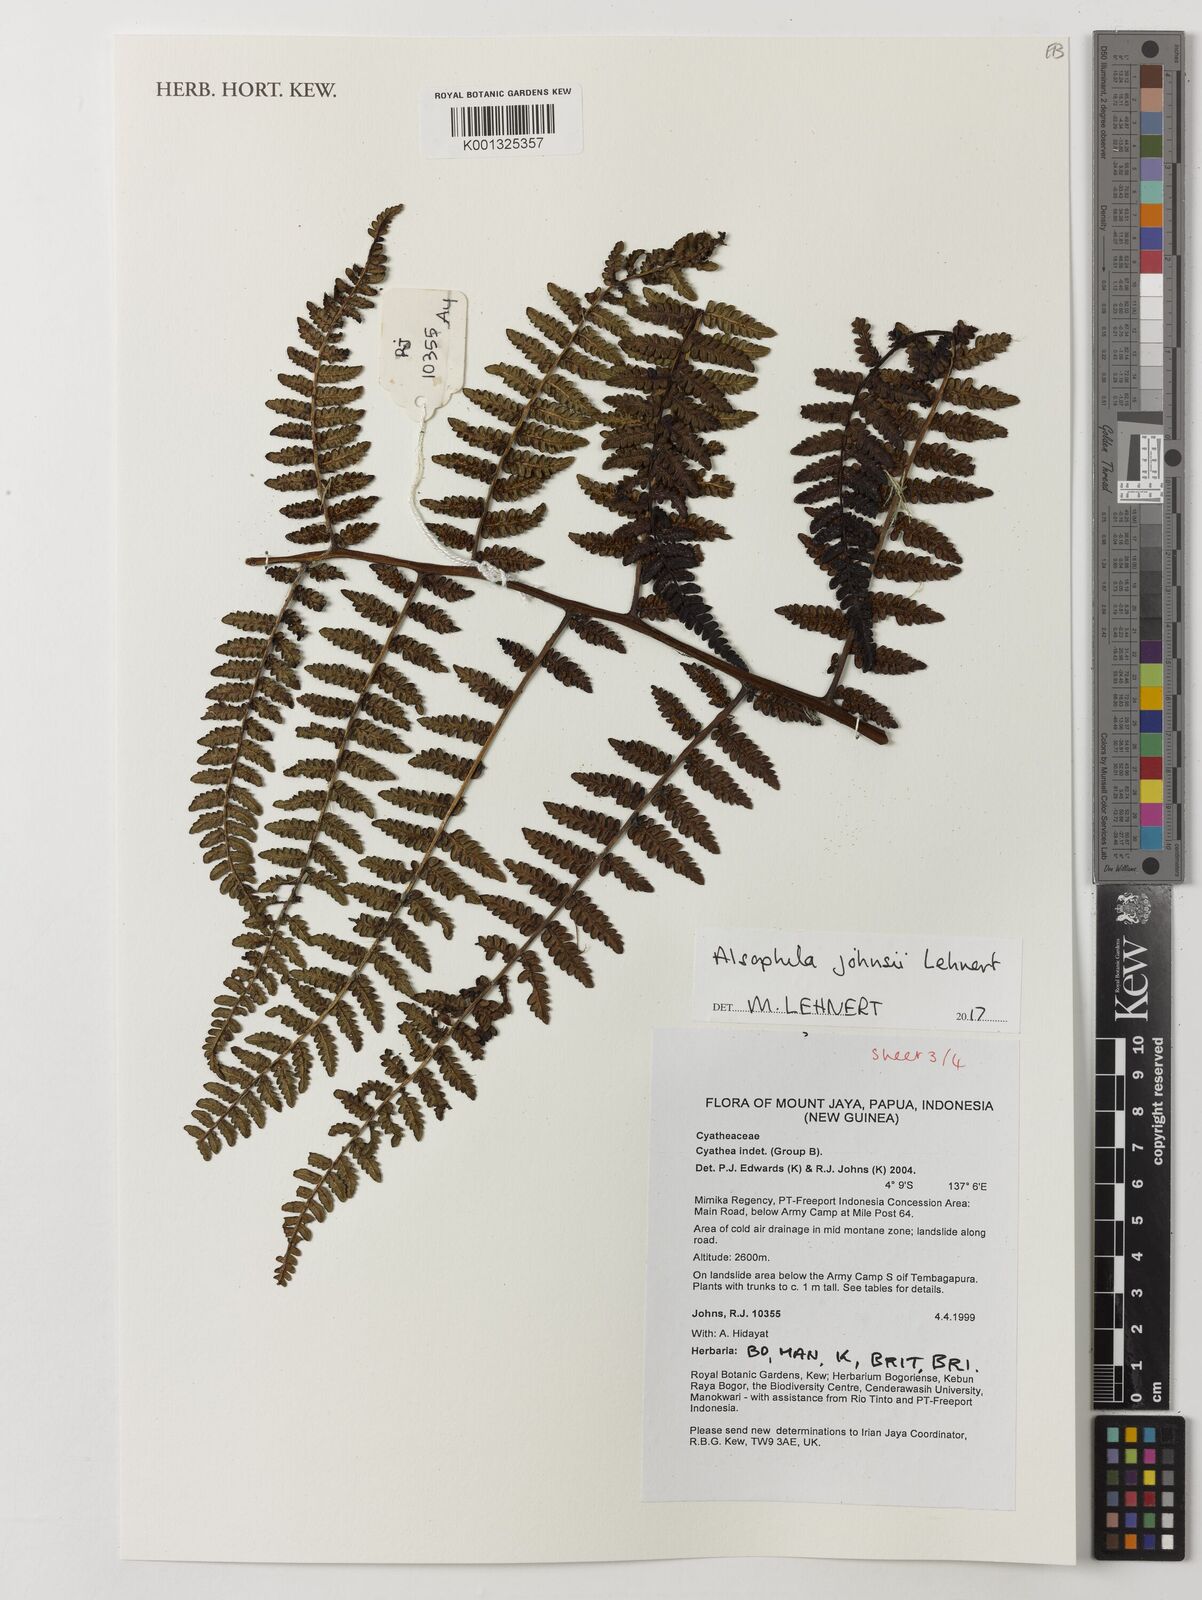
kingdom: Plantae
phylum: Tracheophyta
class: Polypodiopsida
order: Cyatheales
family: Cyatheaceae
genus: Alsophila
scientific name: Alsophila johnsii
